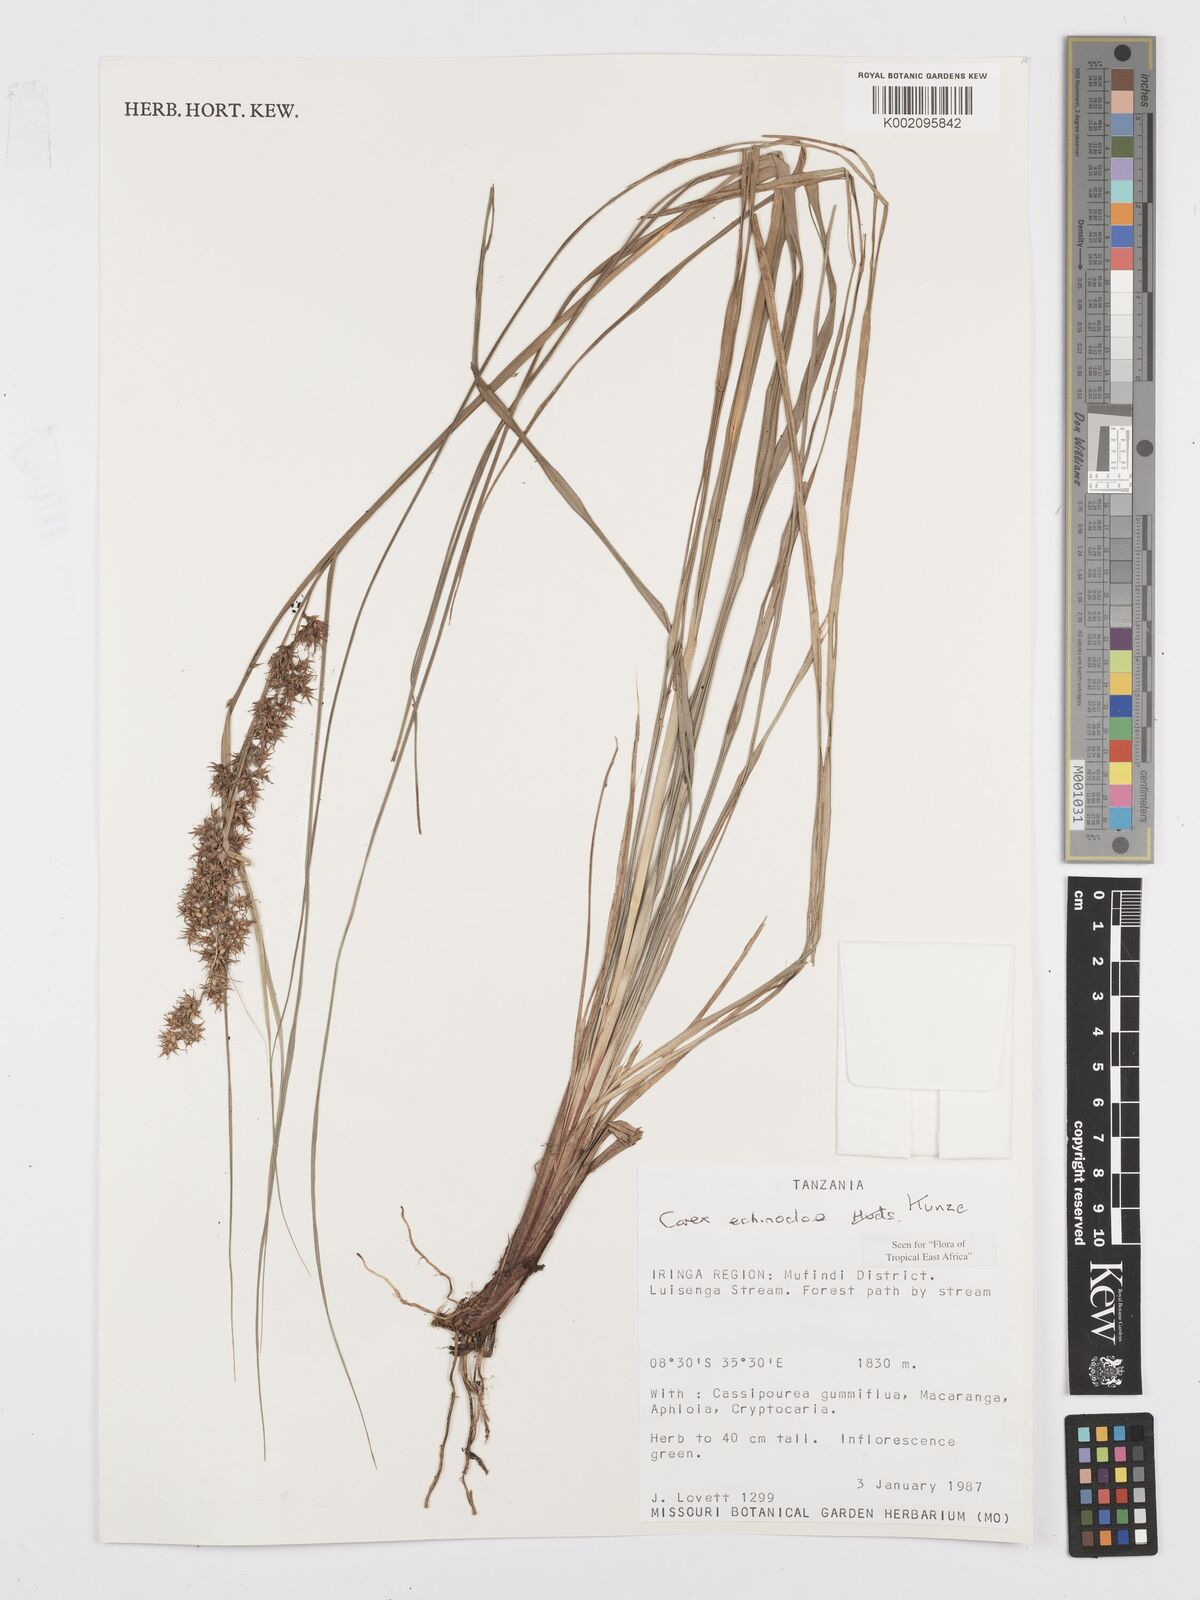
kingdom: Plantae
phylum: Tracheophyta
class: Liliopsida
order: Poales
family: Cyperaceae
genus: Carex
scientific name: Carex echinochloe
